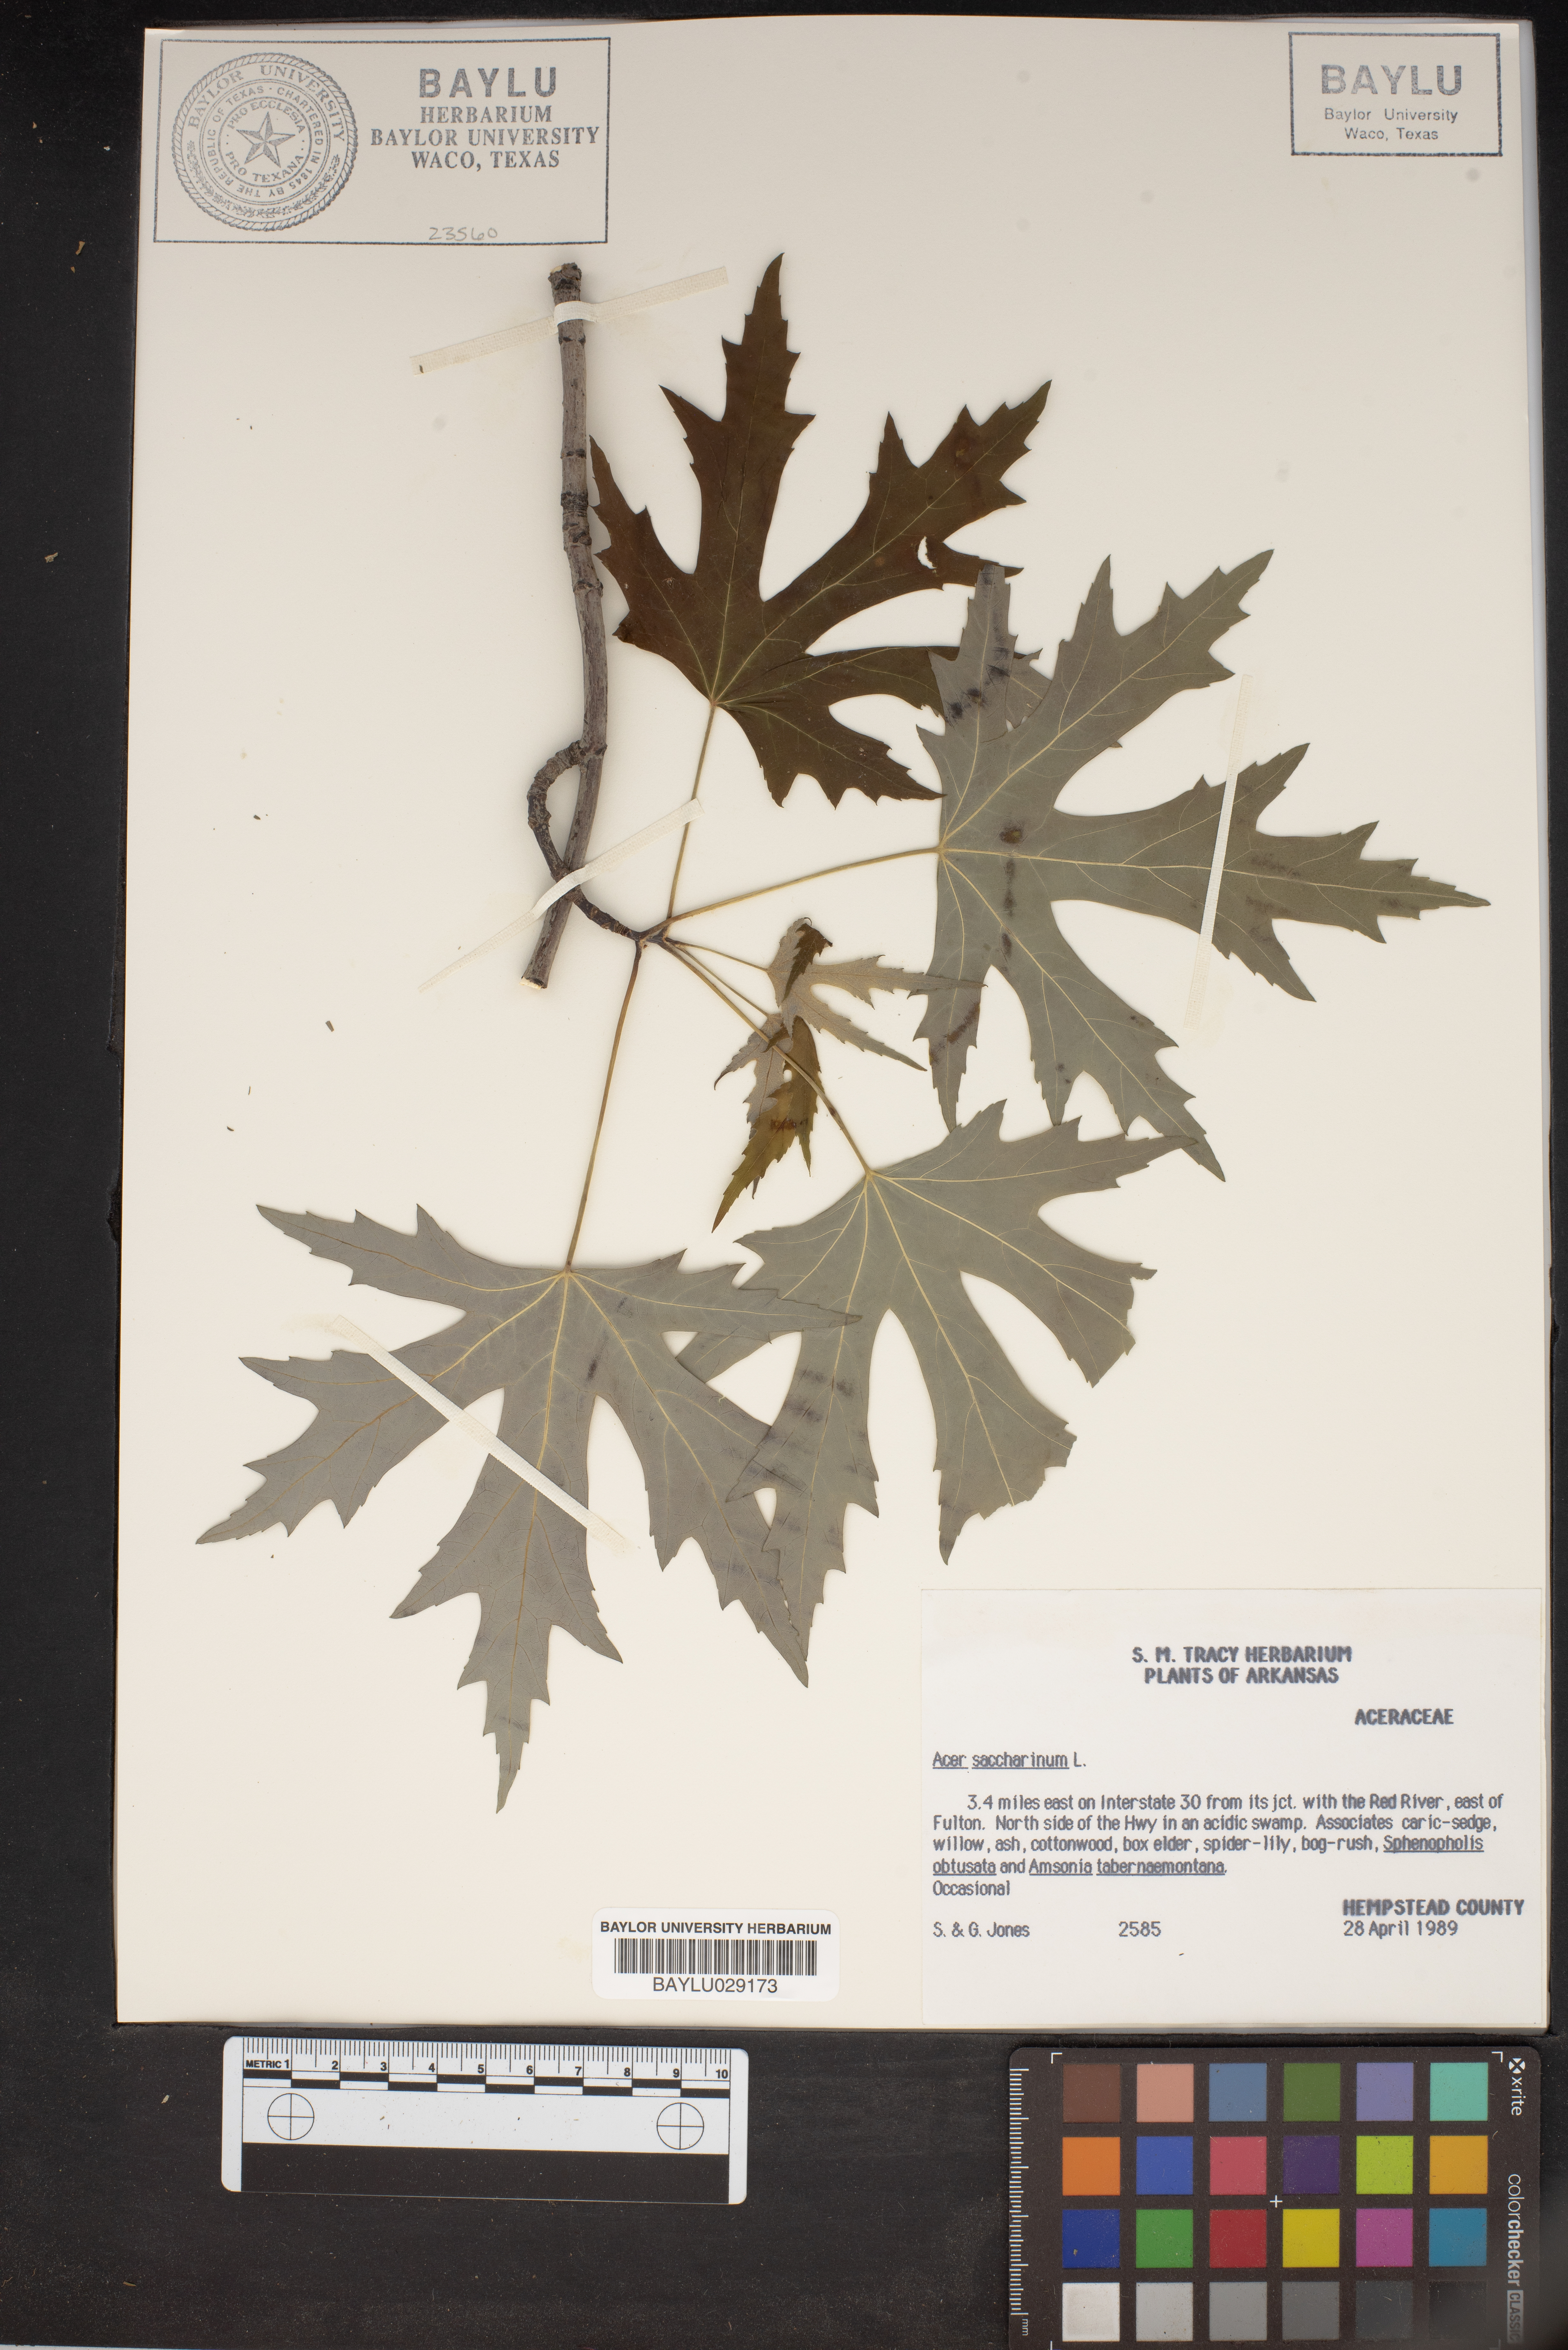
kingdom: Plantae
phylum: Tracheophyta
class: Magnoliopsida
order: Sapindales
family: Sapindaceae
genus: Acer
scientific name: Acer saccharinum
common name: Silver maple
